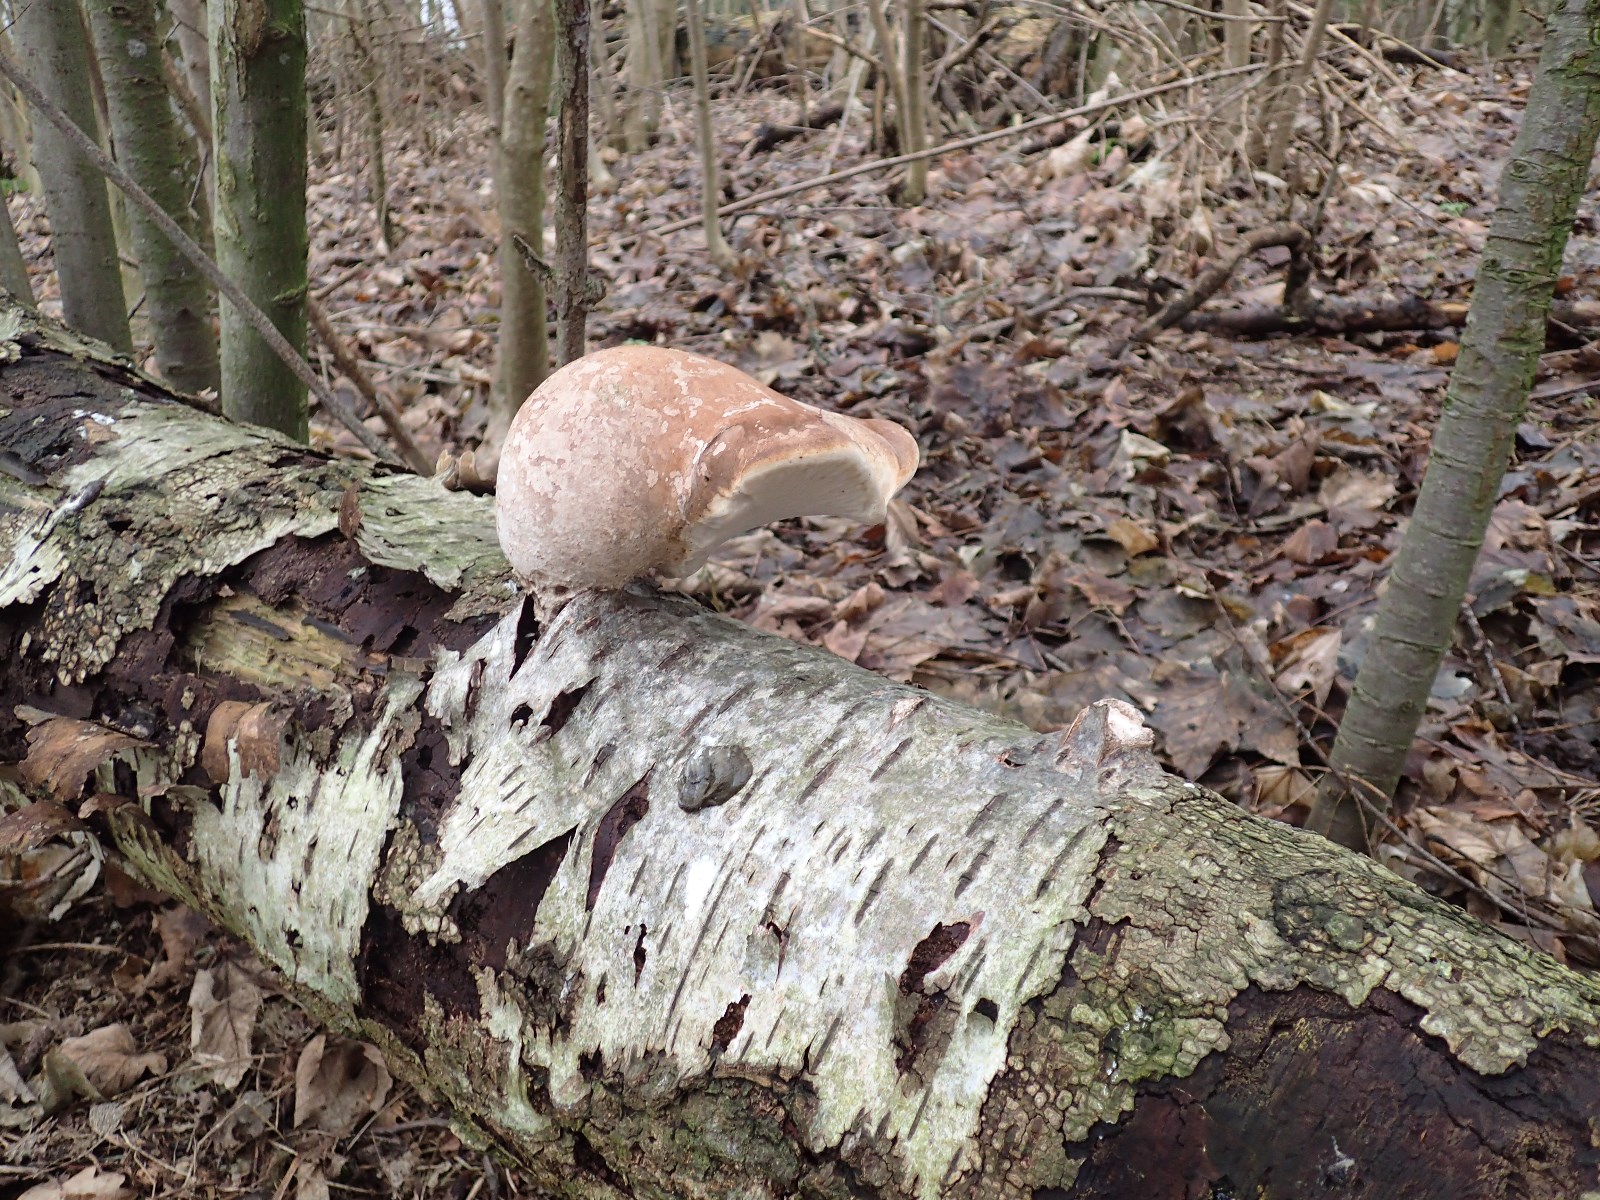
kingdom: Fungi
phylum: Basidiomycota
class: Agaricomycetes
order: Polyporales
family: Fomitopsidaceae
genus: Fomitopsis
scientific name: Fomitopsis betulina
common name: birkeporesvamp
